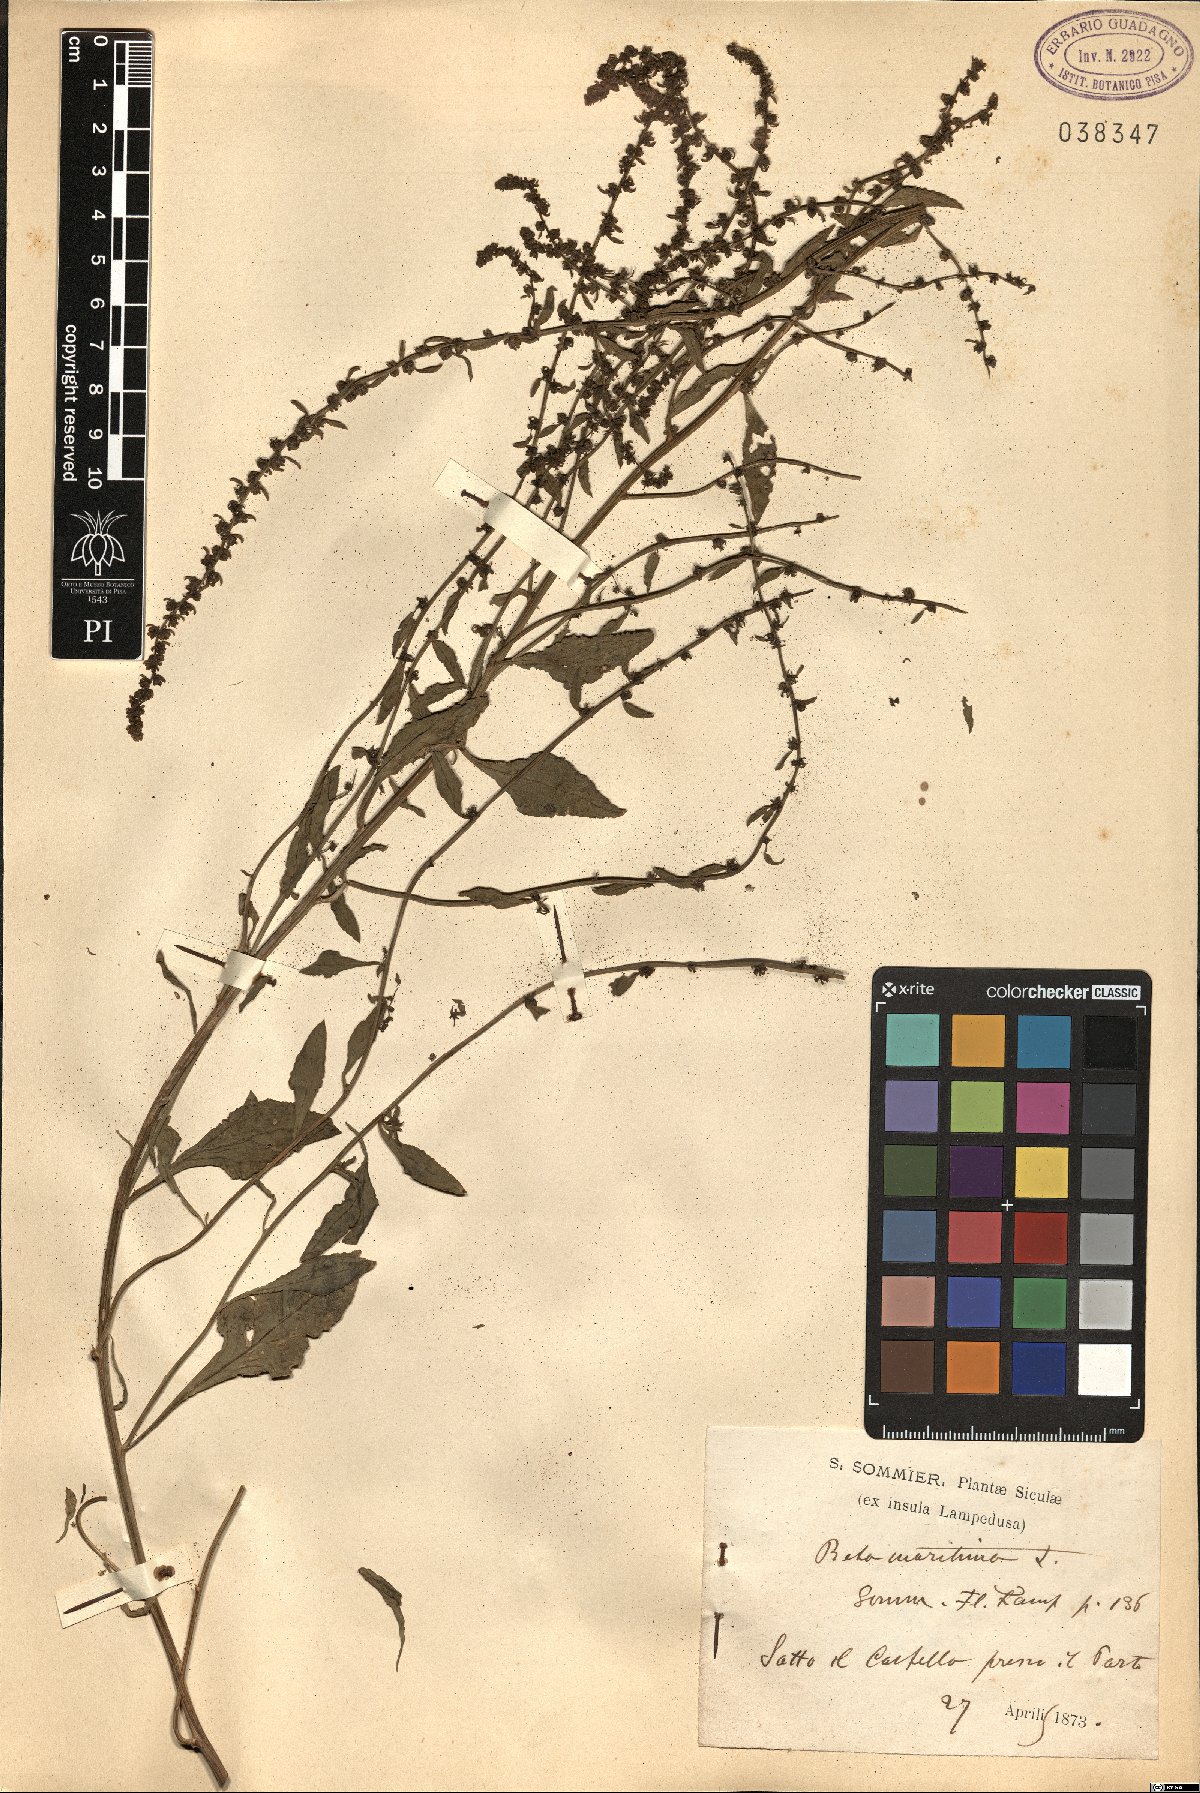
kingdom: Plantae
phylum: Tracheophyta
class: Magnoliopsida
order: Caryophyllales
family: Amaranthaceae
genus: Beta
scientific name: Beta maritima
